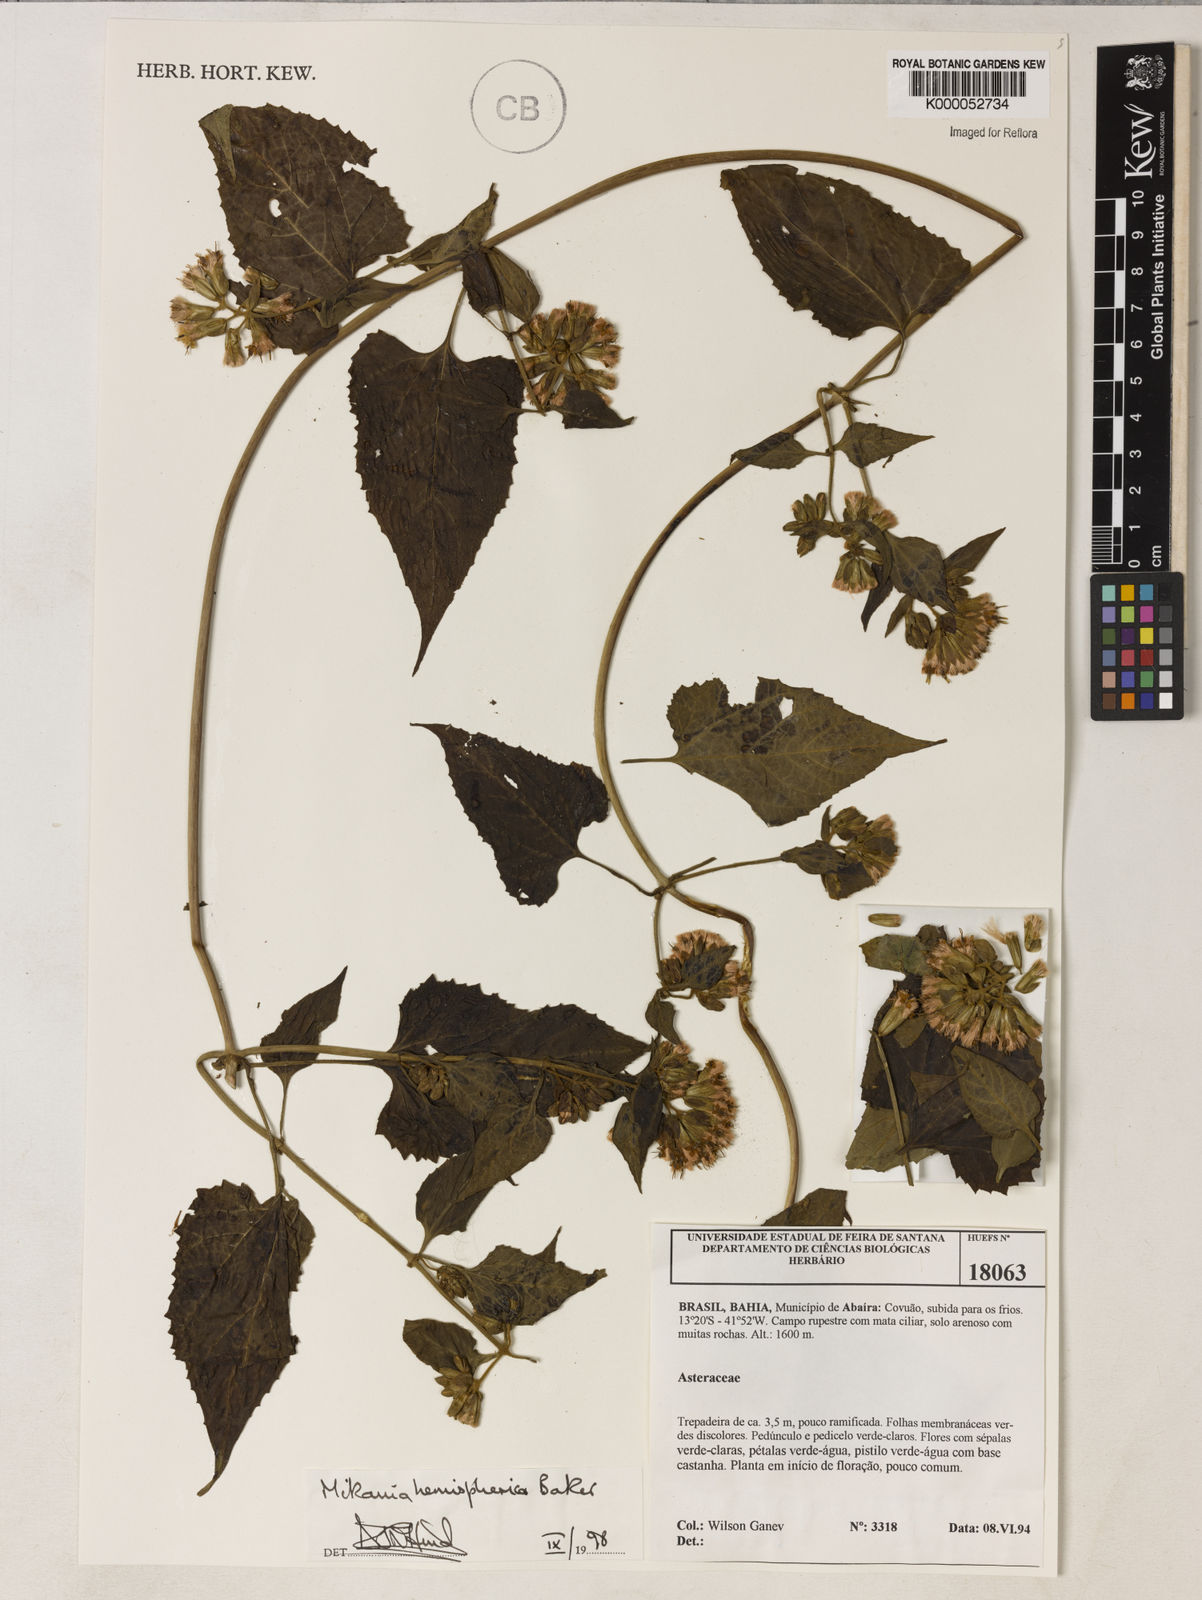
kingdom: Plantae
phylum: Tracheophyta
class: Magnoliopsida
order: Asterales
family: Asteraceae
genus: Mikania
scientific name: Mikania hemisphaerica
